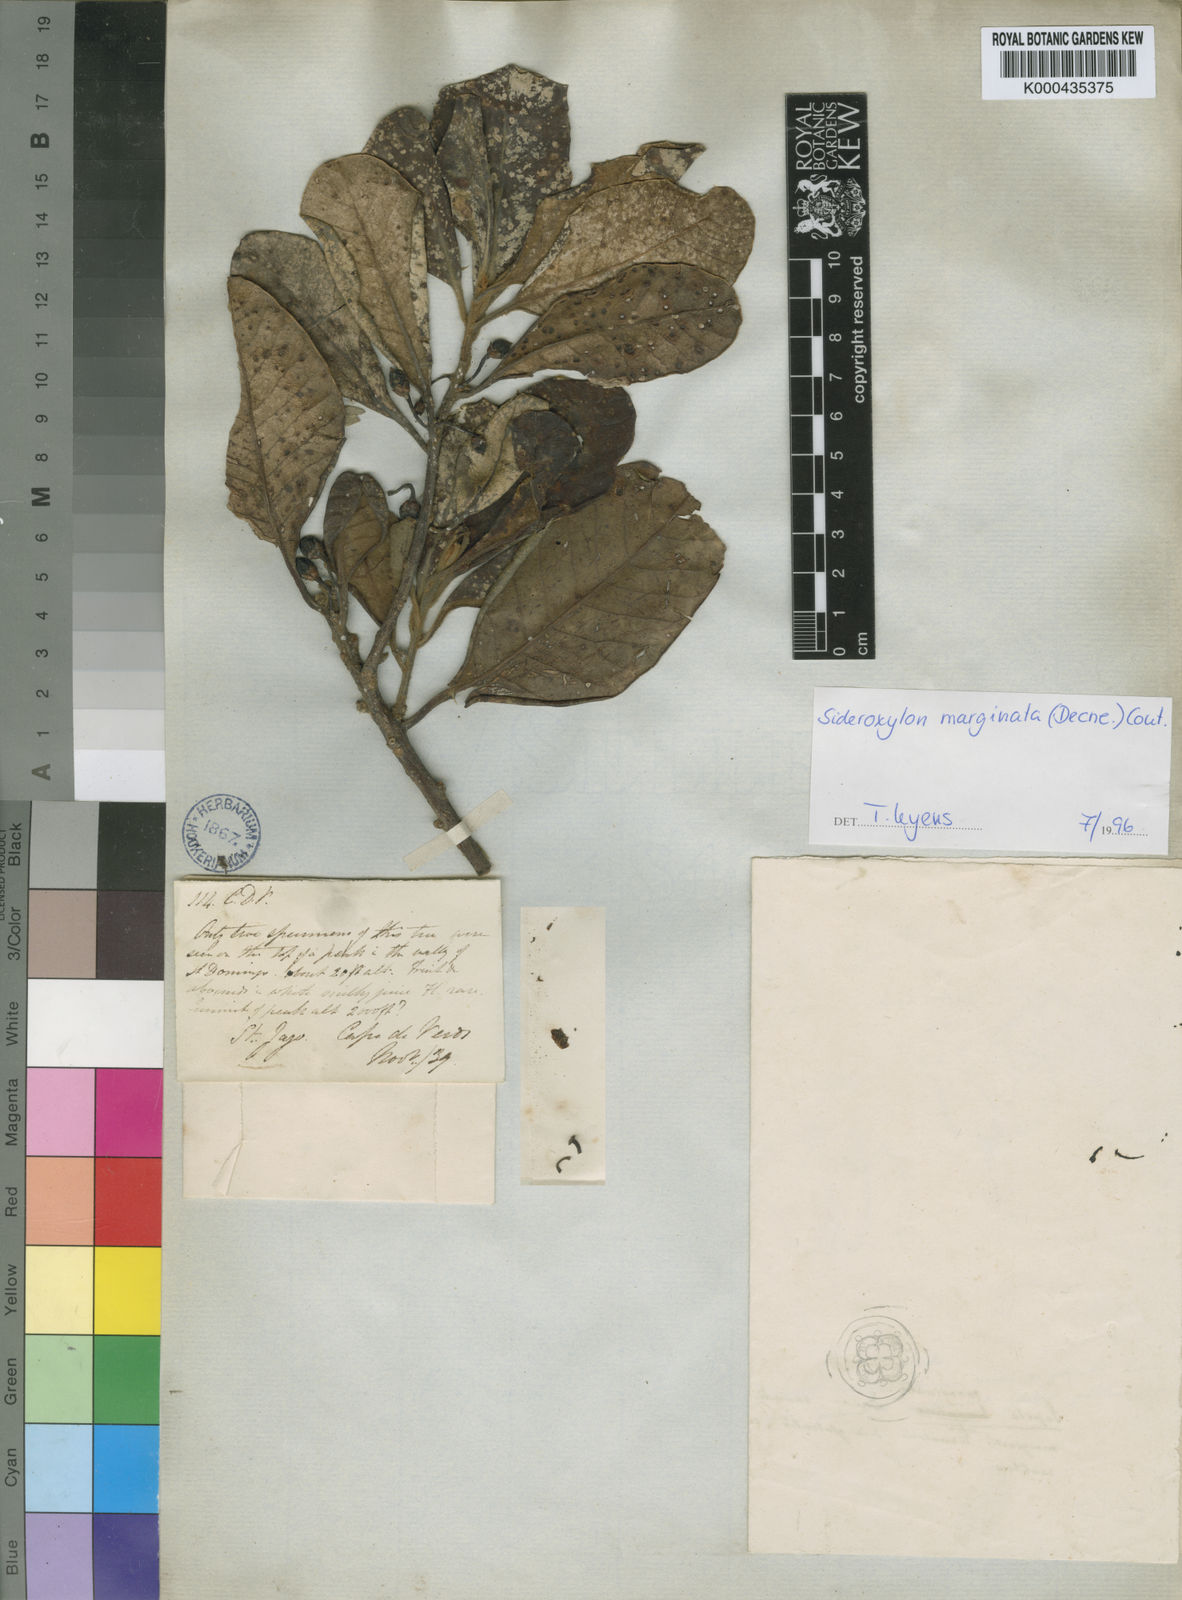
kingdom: Plantae
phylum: Tracheophyta
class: Magnoliopsida
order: Ericales
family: Sapotaceae
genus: Sideroxylon
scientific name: Sideroxylon marginatum
